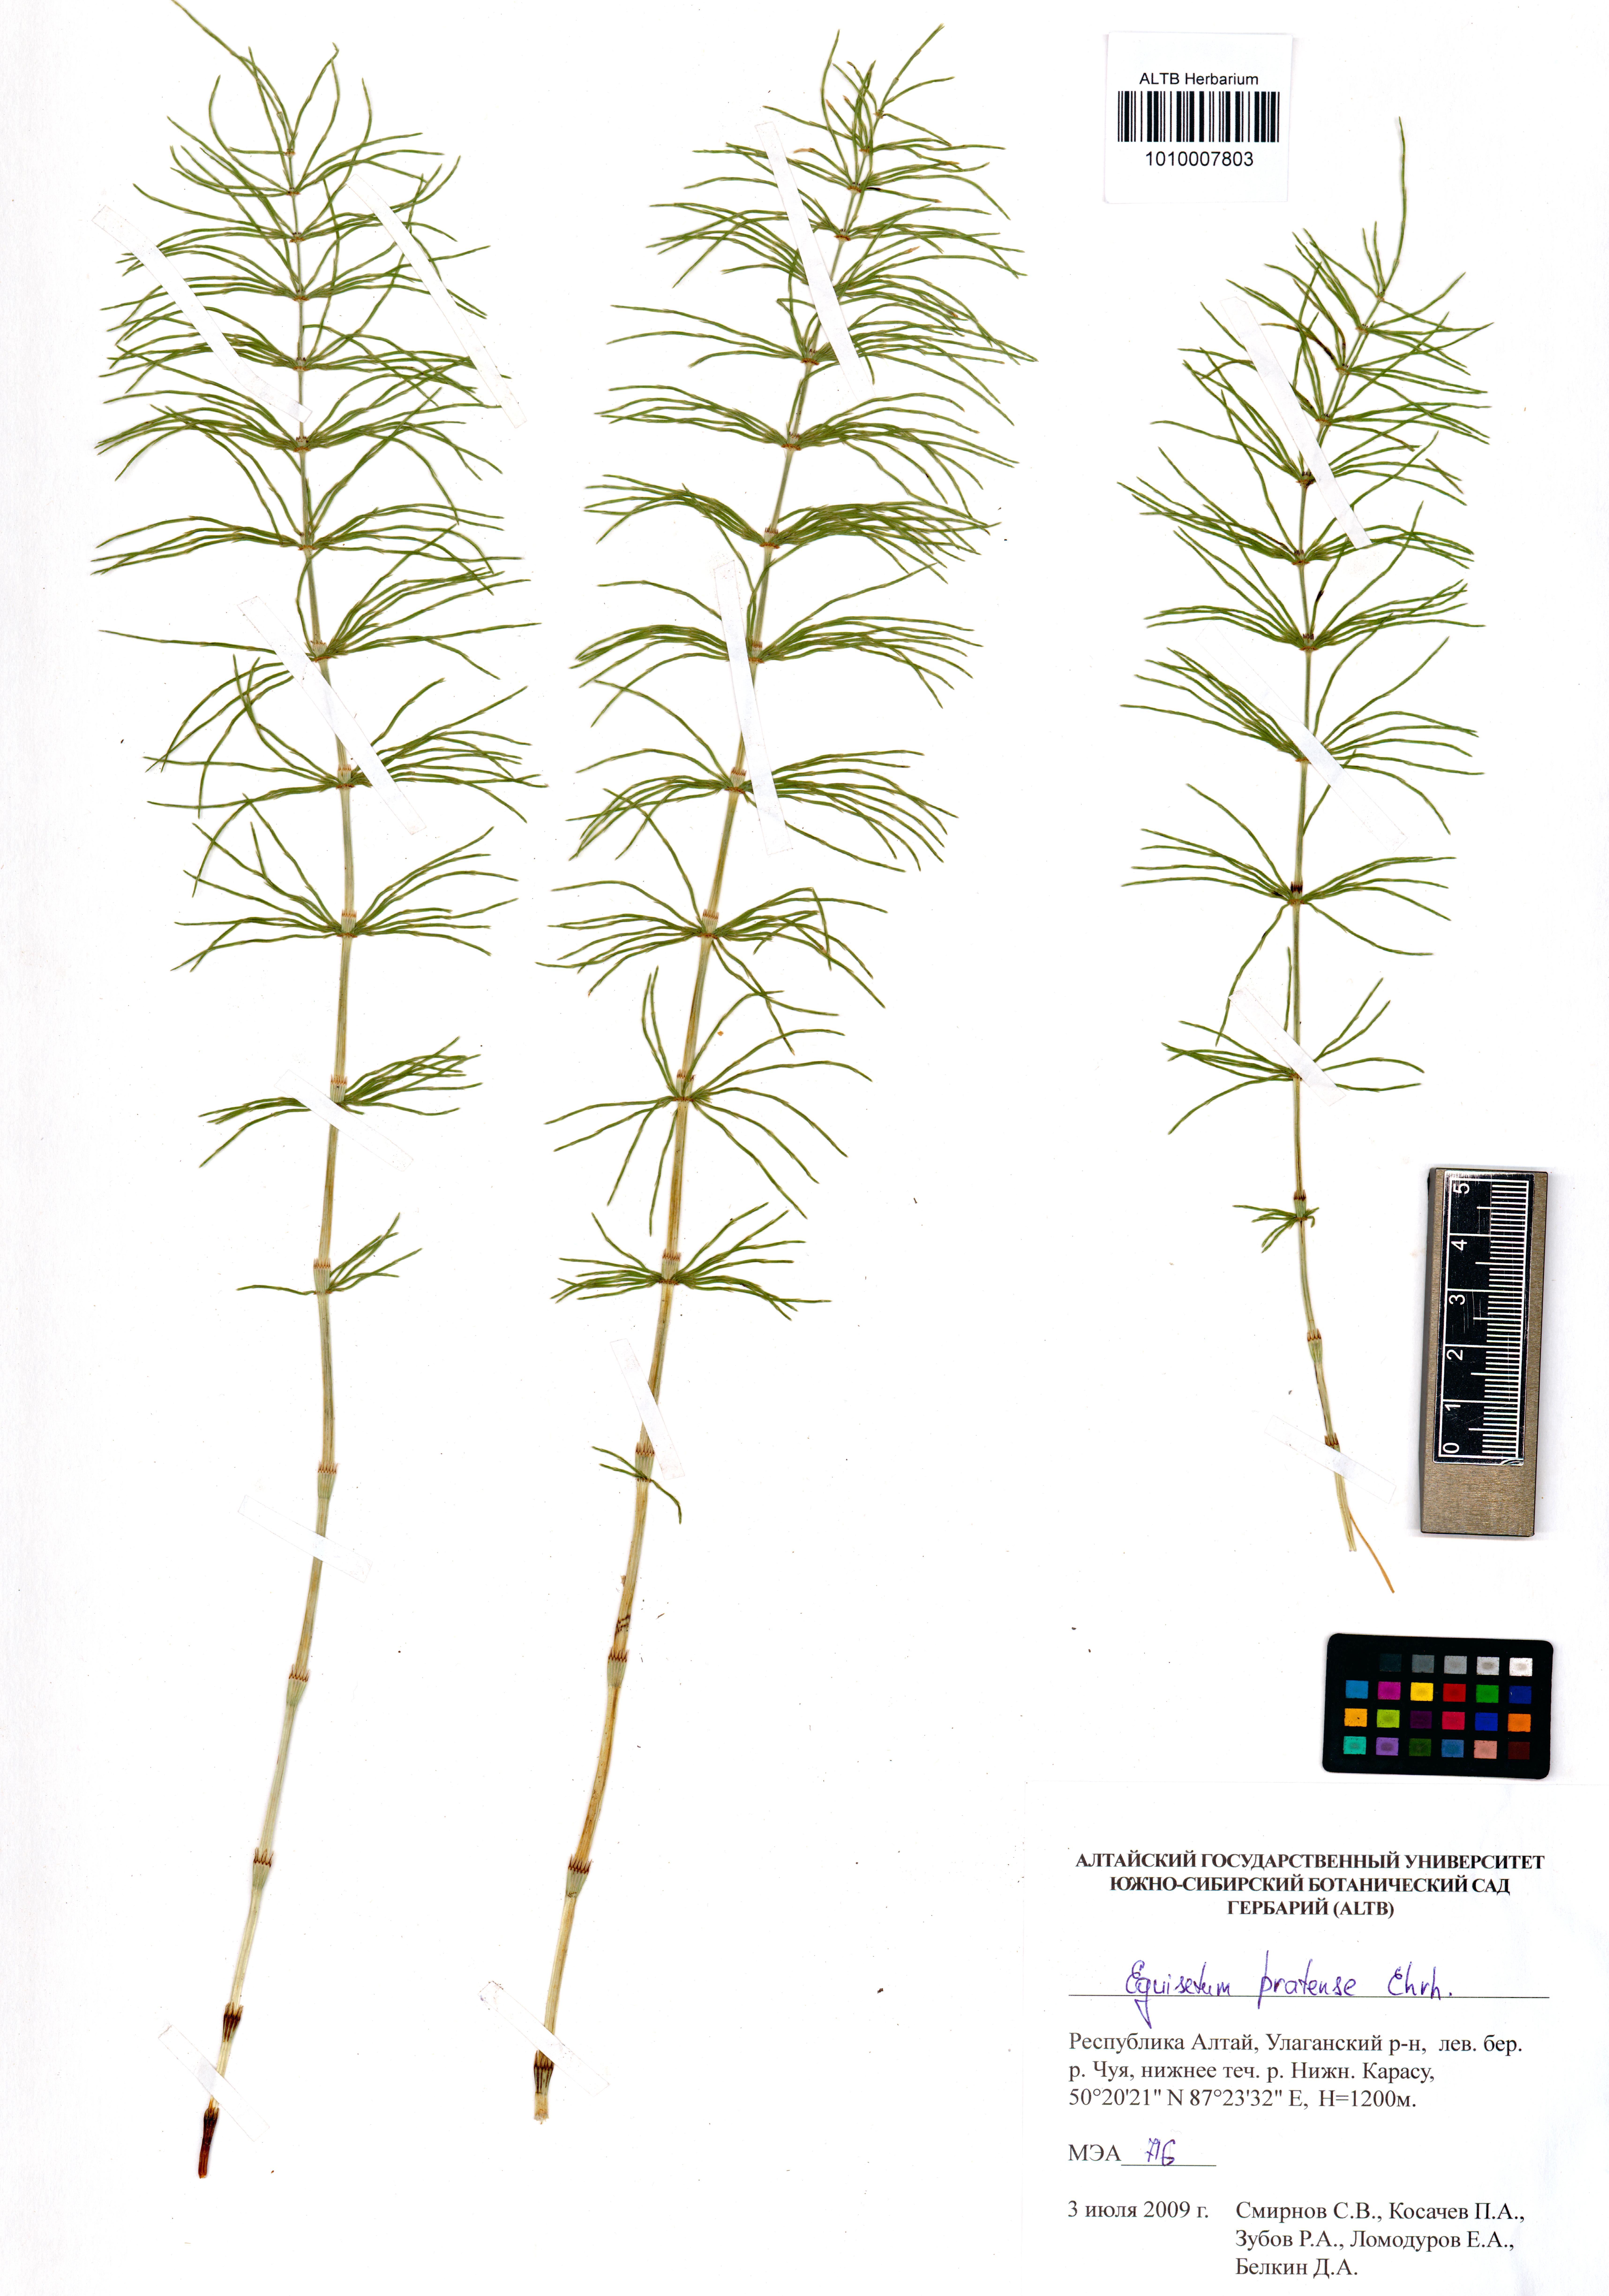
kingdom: Plantae
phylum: Tracheophyta
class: Polypodiopsida
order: Equisetales
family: Equisetaceae
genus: Equisetum
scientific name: Equisetum pratense
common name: Meadow horsetail
